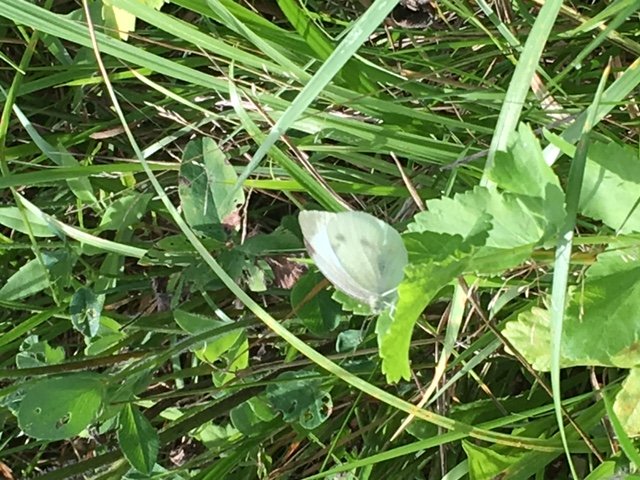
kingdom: Animalia
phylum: Arthropoda
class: Insecta
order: Lepidoptera
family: Pieridae
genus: Pieris
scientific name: Pieris rapae
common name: Cabbage White
